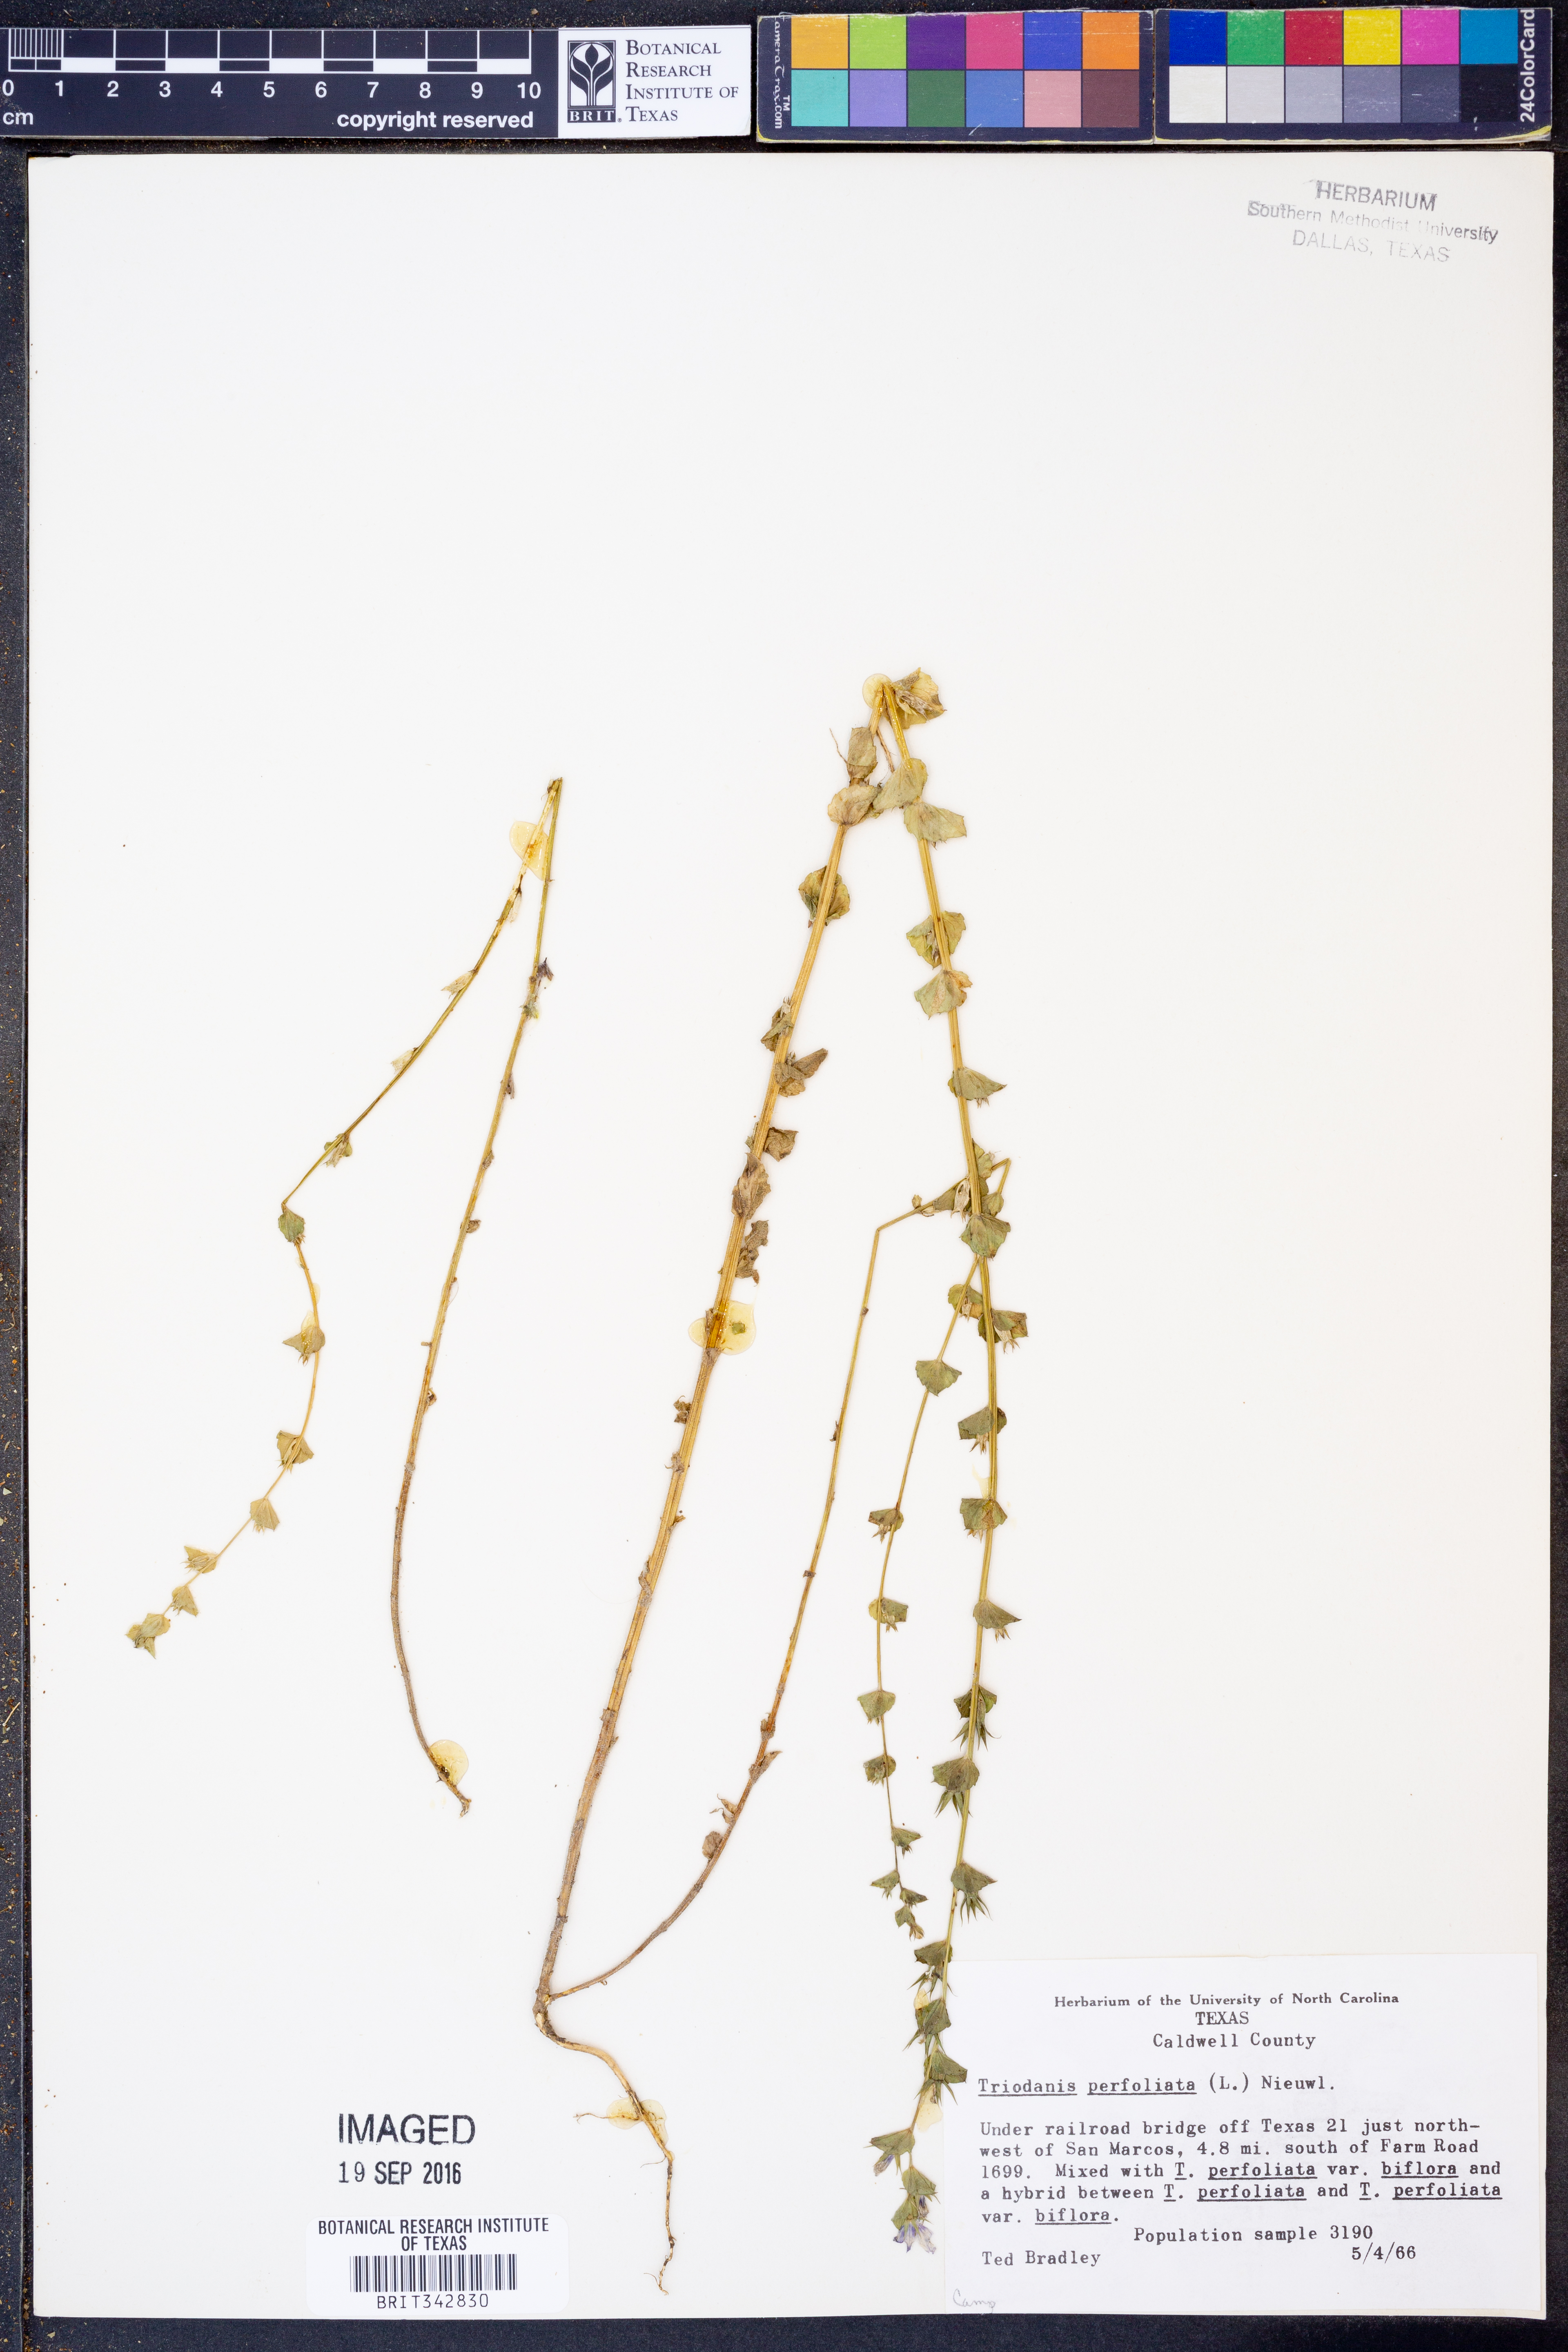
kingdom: Plantae
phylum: Tracheophyta
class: Magnoliopsida
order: Asterales
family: Campanulaceae
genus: Triodanis
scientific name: Triodanis perfoliata
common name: Clasping venus' looking-glass
